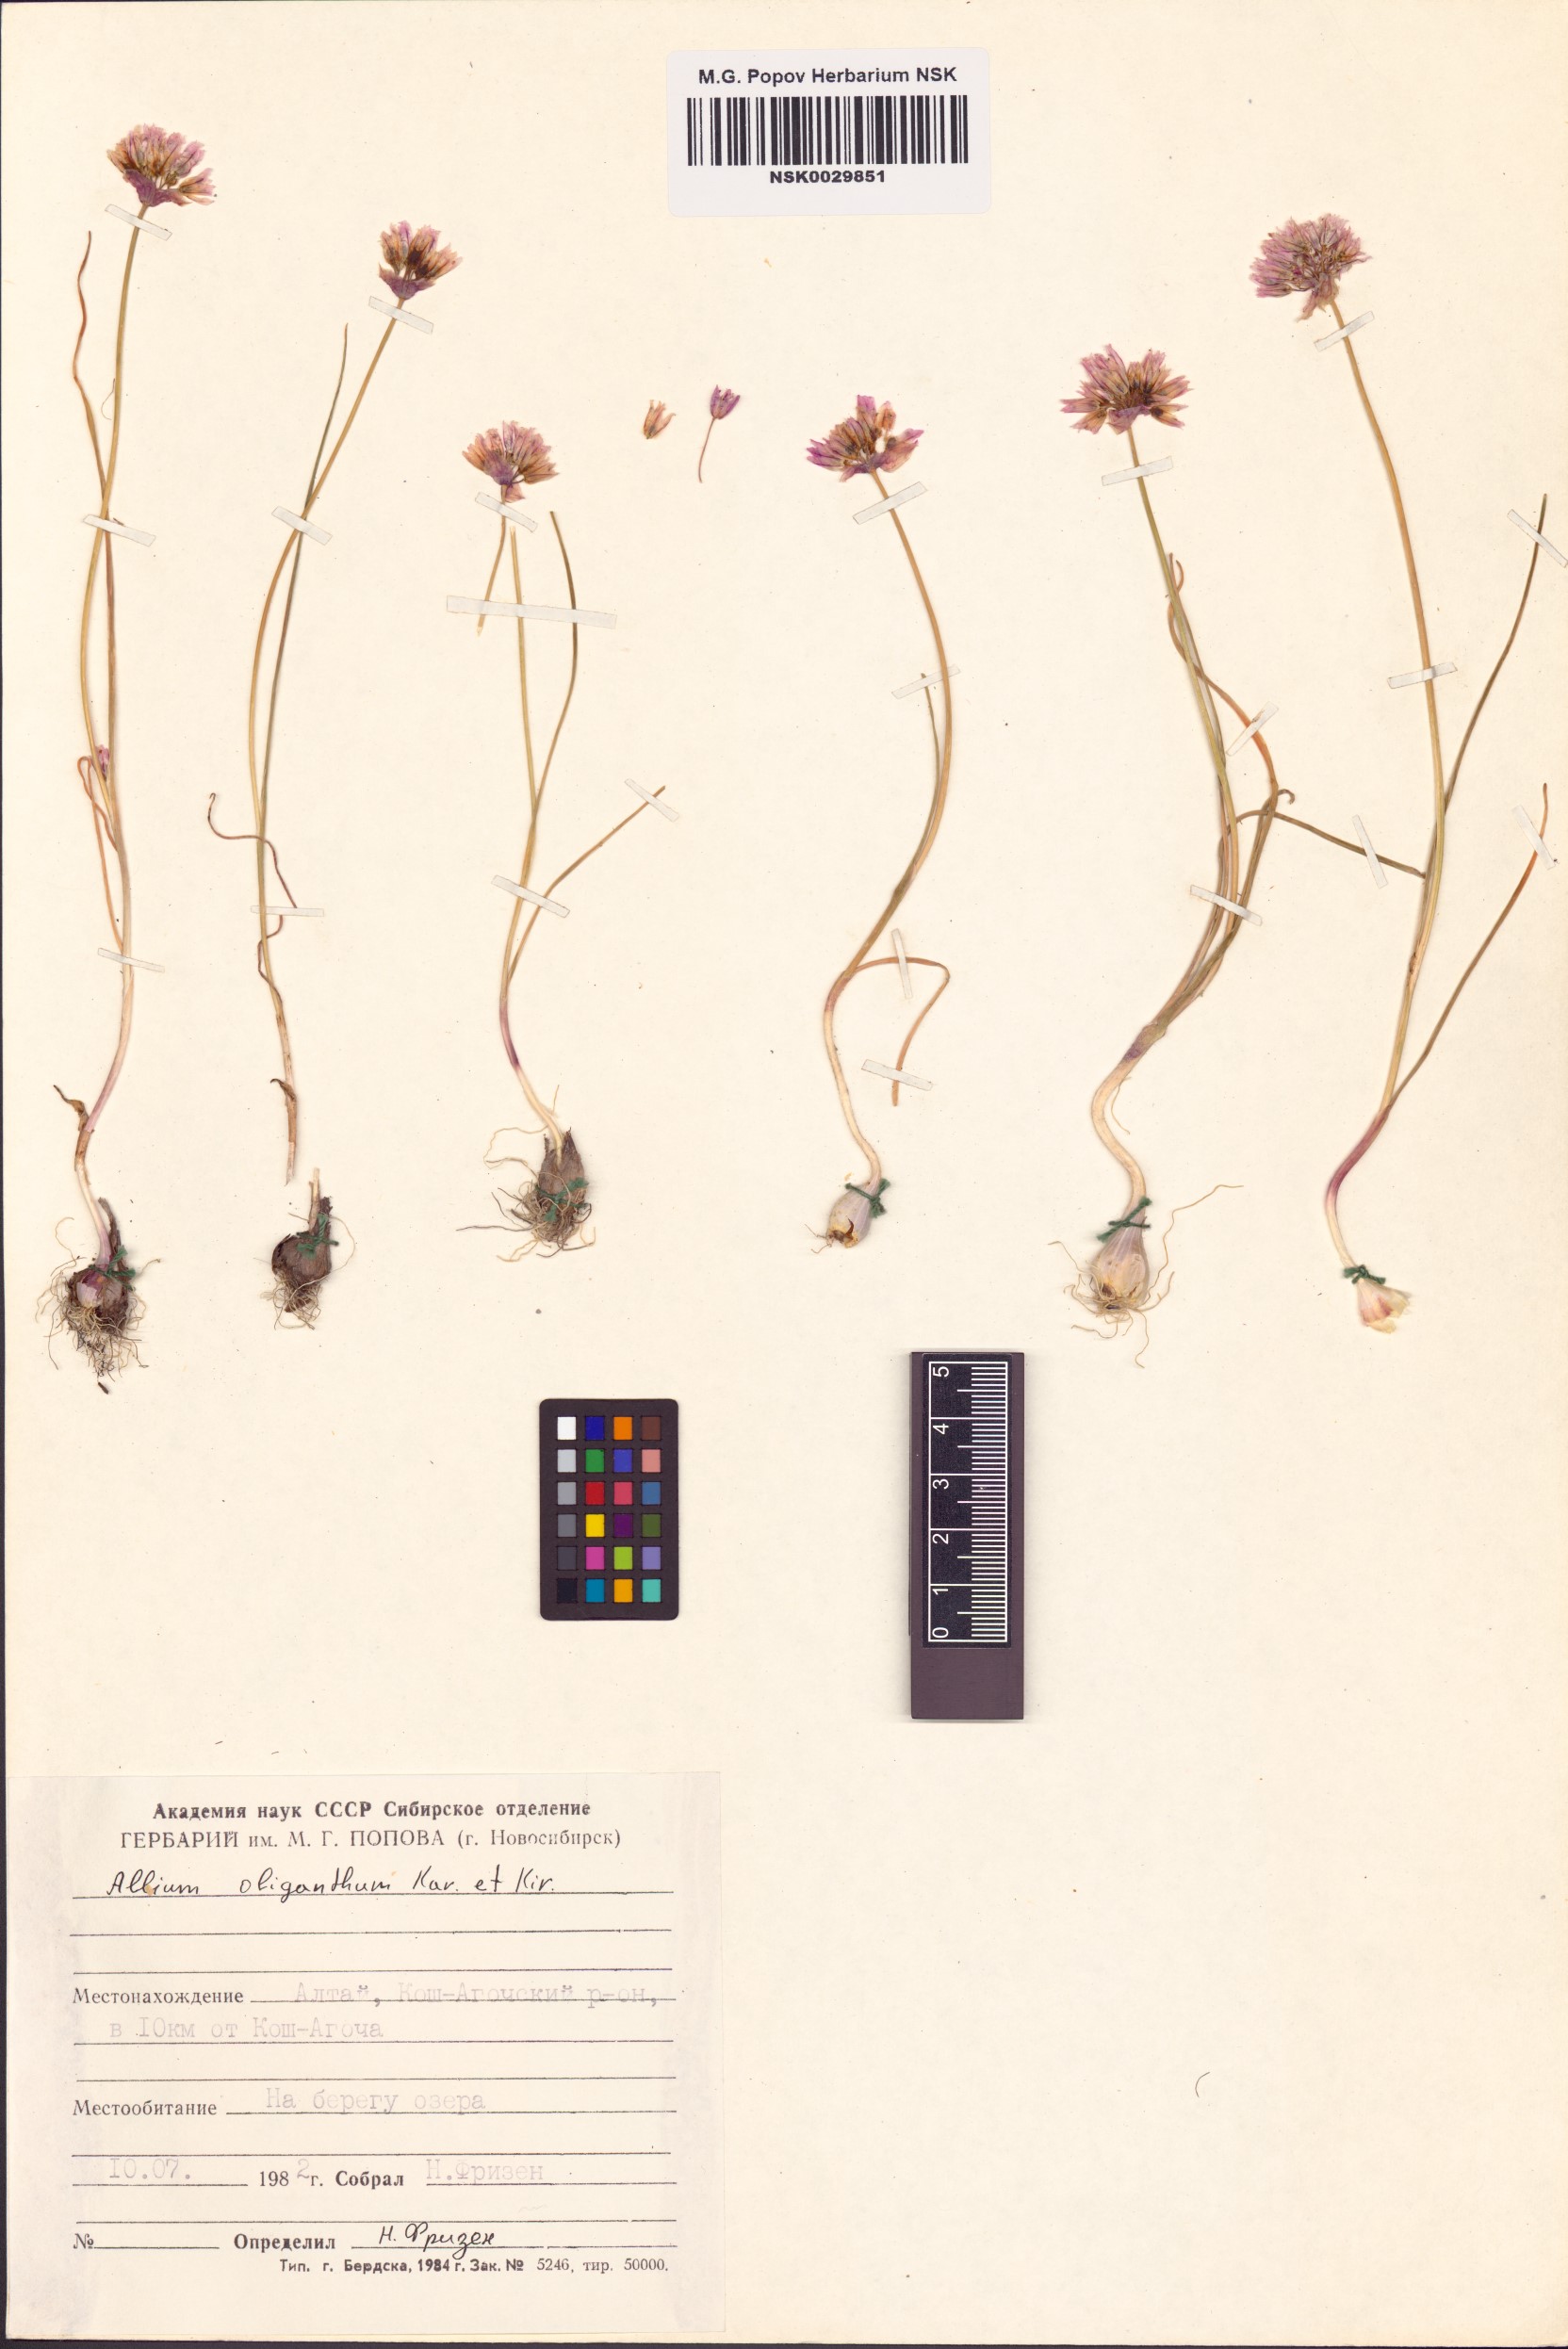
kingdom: Plantae
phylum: Tracheophyta
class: Liliopsida
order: Asparagales
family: Amaryllidaceae
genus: Allium
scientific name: Allium oliganthum
